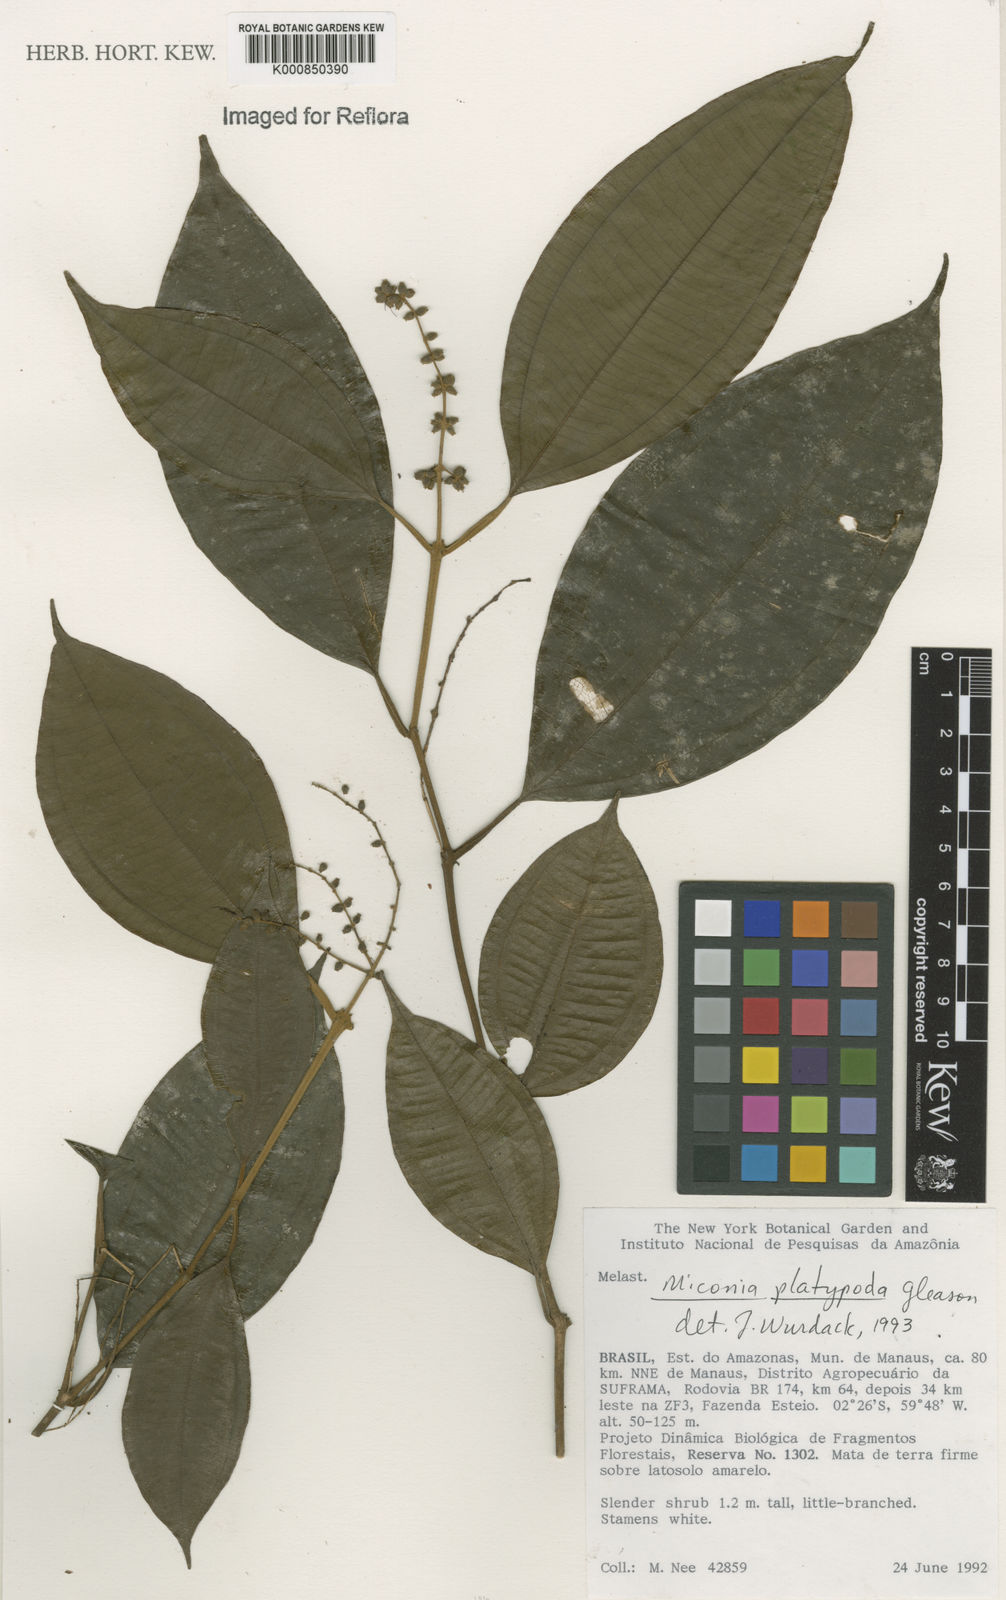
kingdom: Plantae
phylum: Tracheophyta
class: Magnoliopsida
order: Myrtales
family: Melastomataceae
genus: Miconia
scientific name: Miconia platypoda
